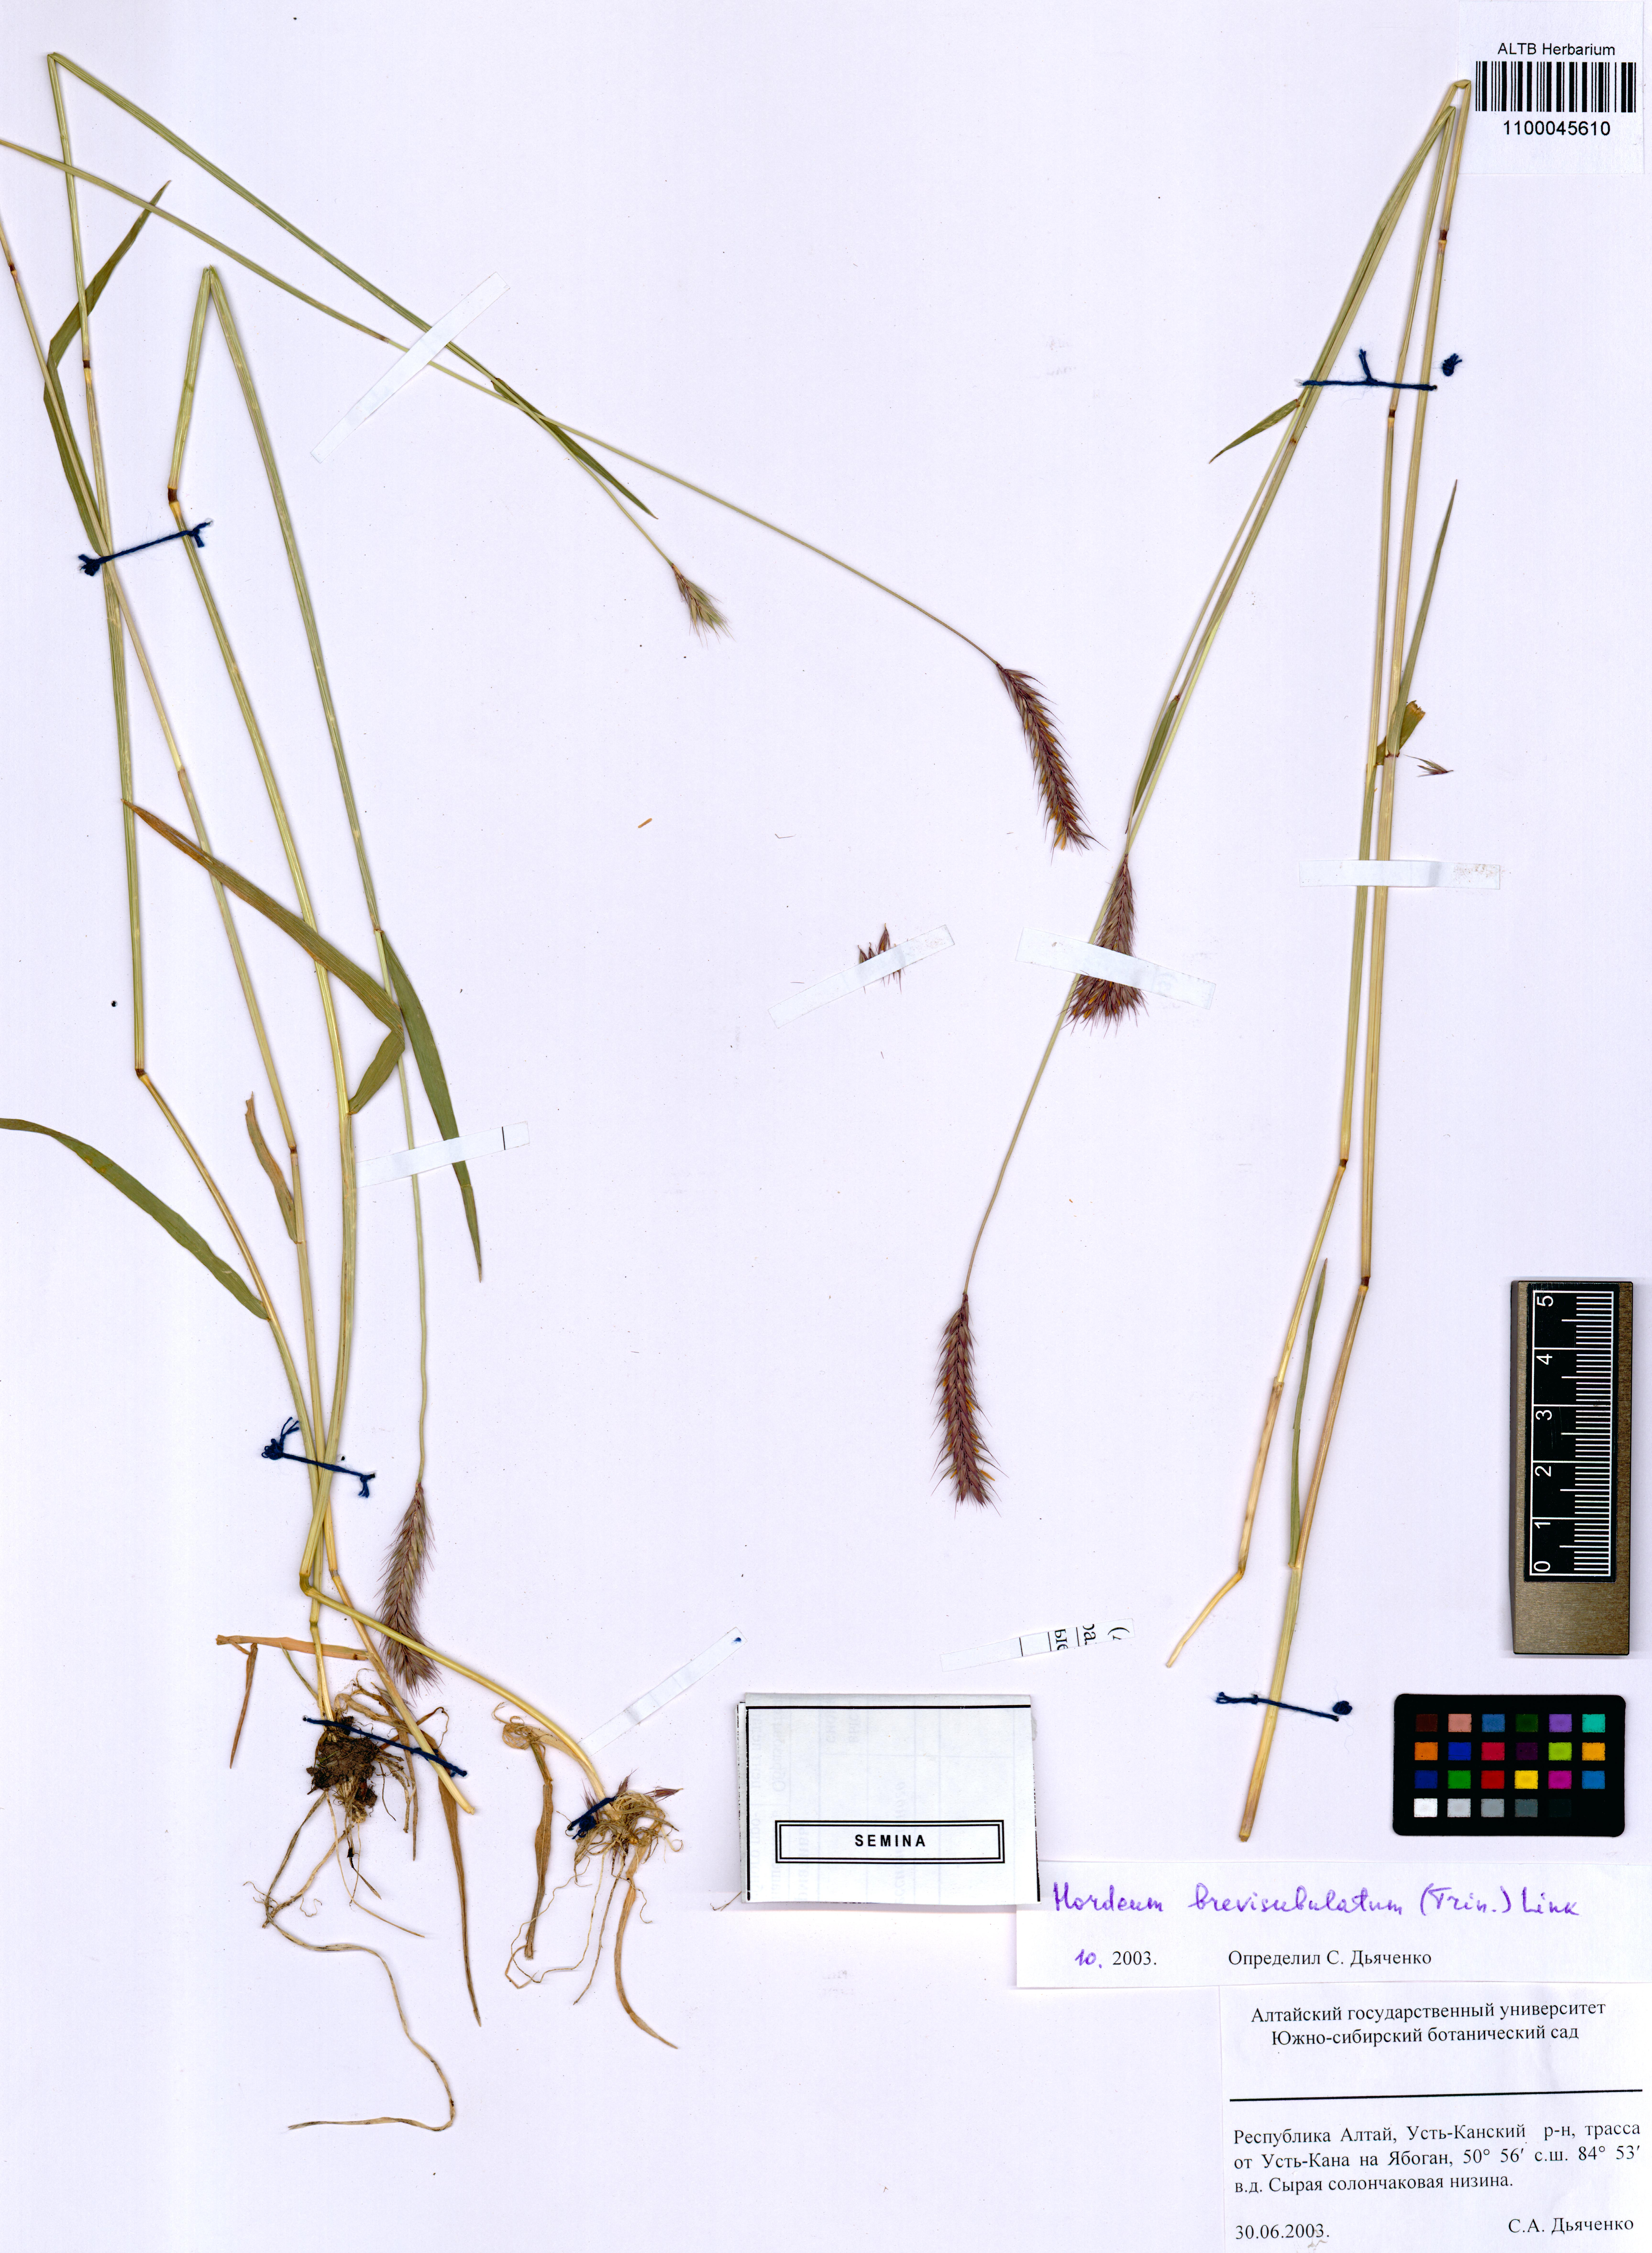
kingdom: Plantae
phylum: Tracheophyta
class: Liliopsida
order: Poales
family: Poaceae
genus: Hordeum
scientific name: Hordeum brevisubulatum
